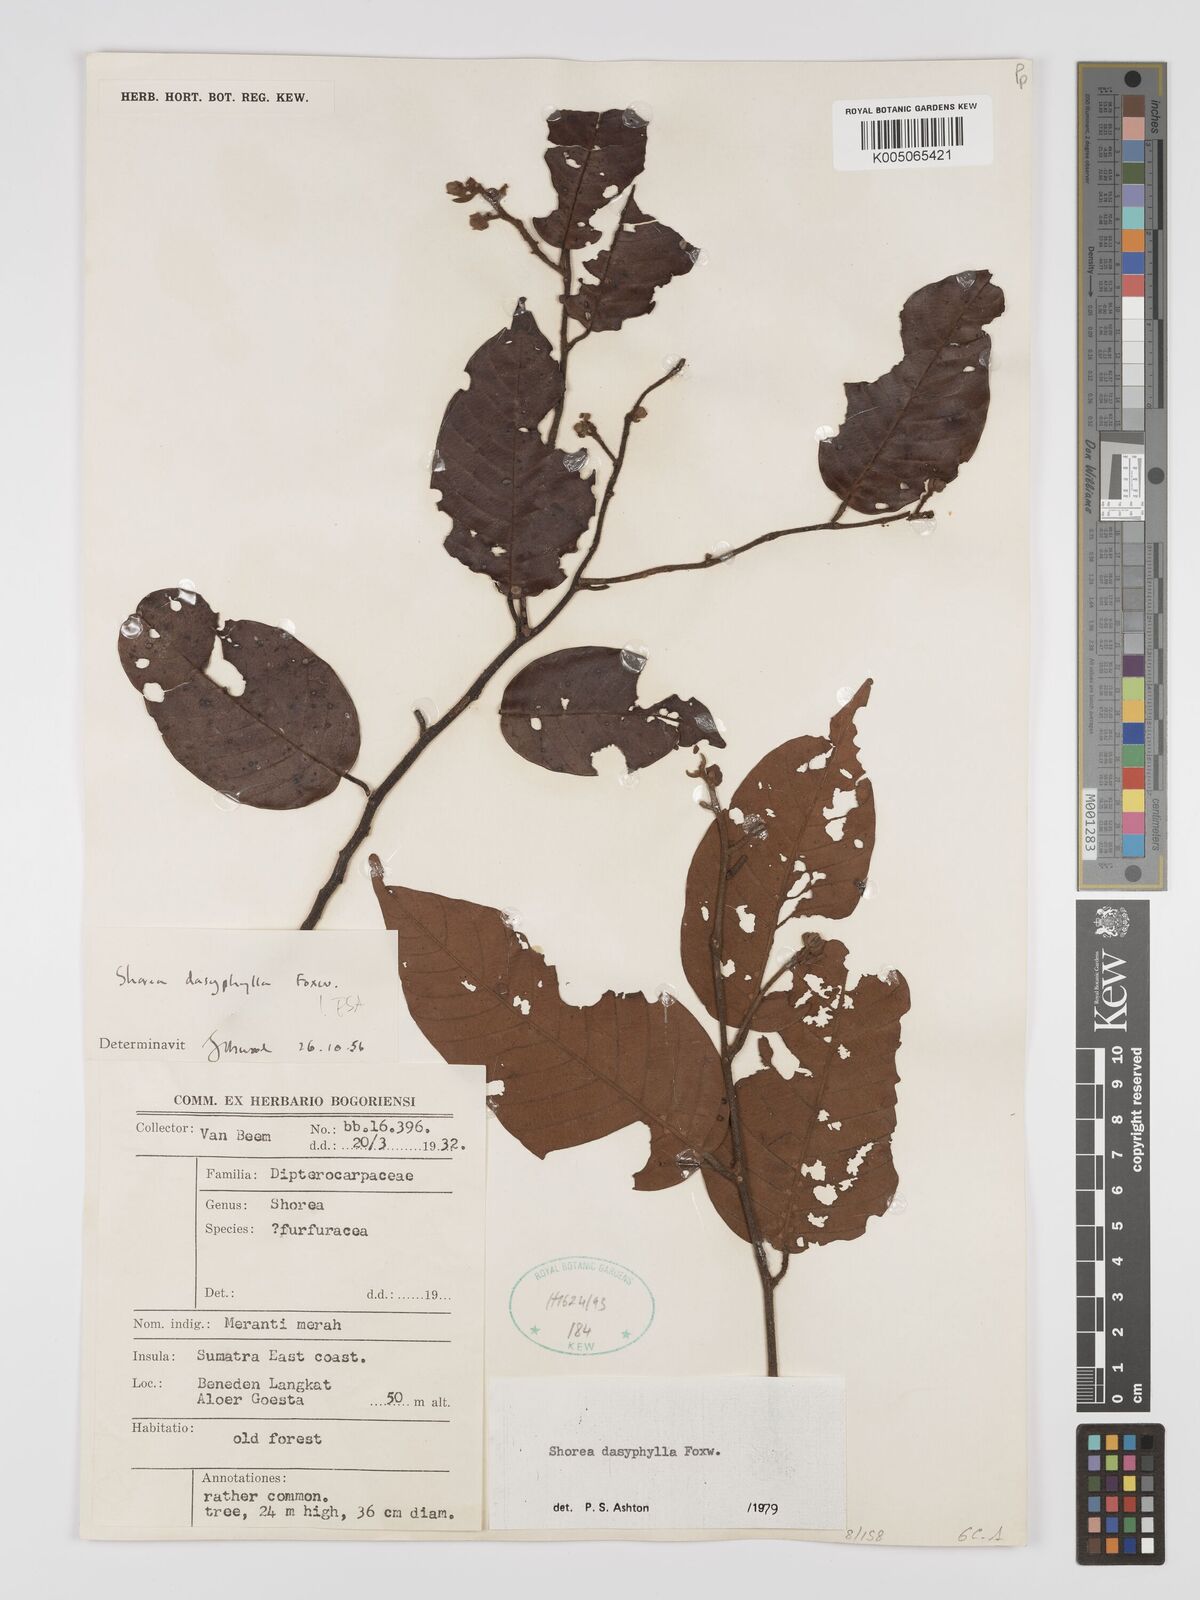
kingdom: Plantae
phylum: Tracheophyta
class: Magnoliopsida
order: Malvales
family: Dipterocarpaceae
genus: Shorea
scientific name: Shorea dasyphylla
